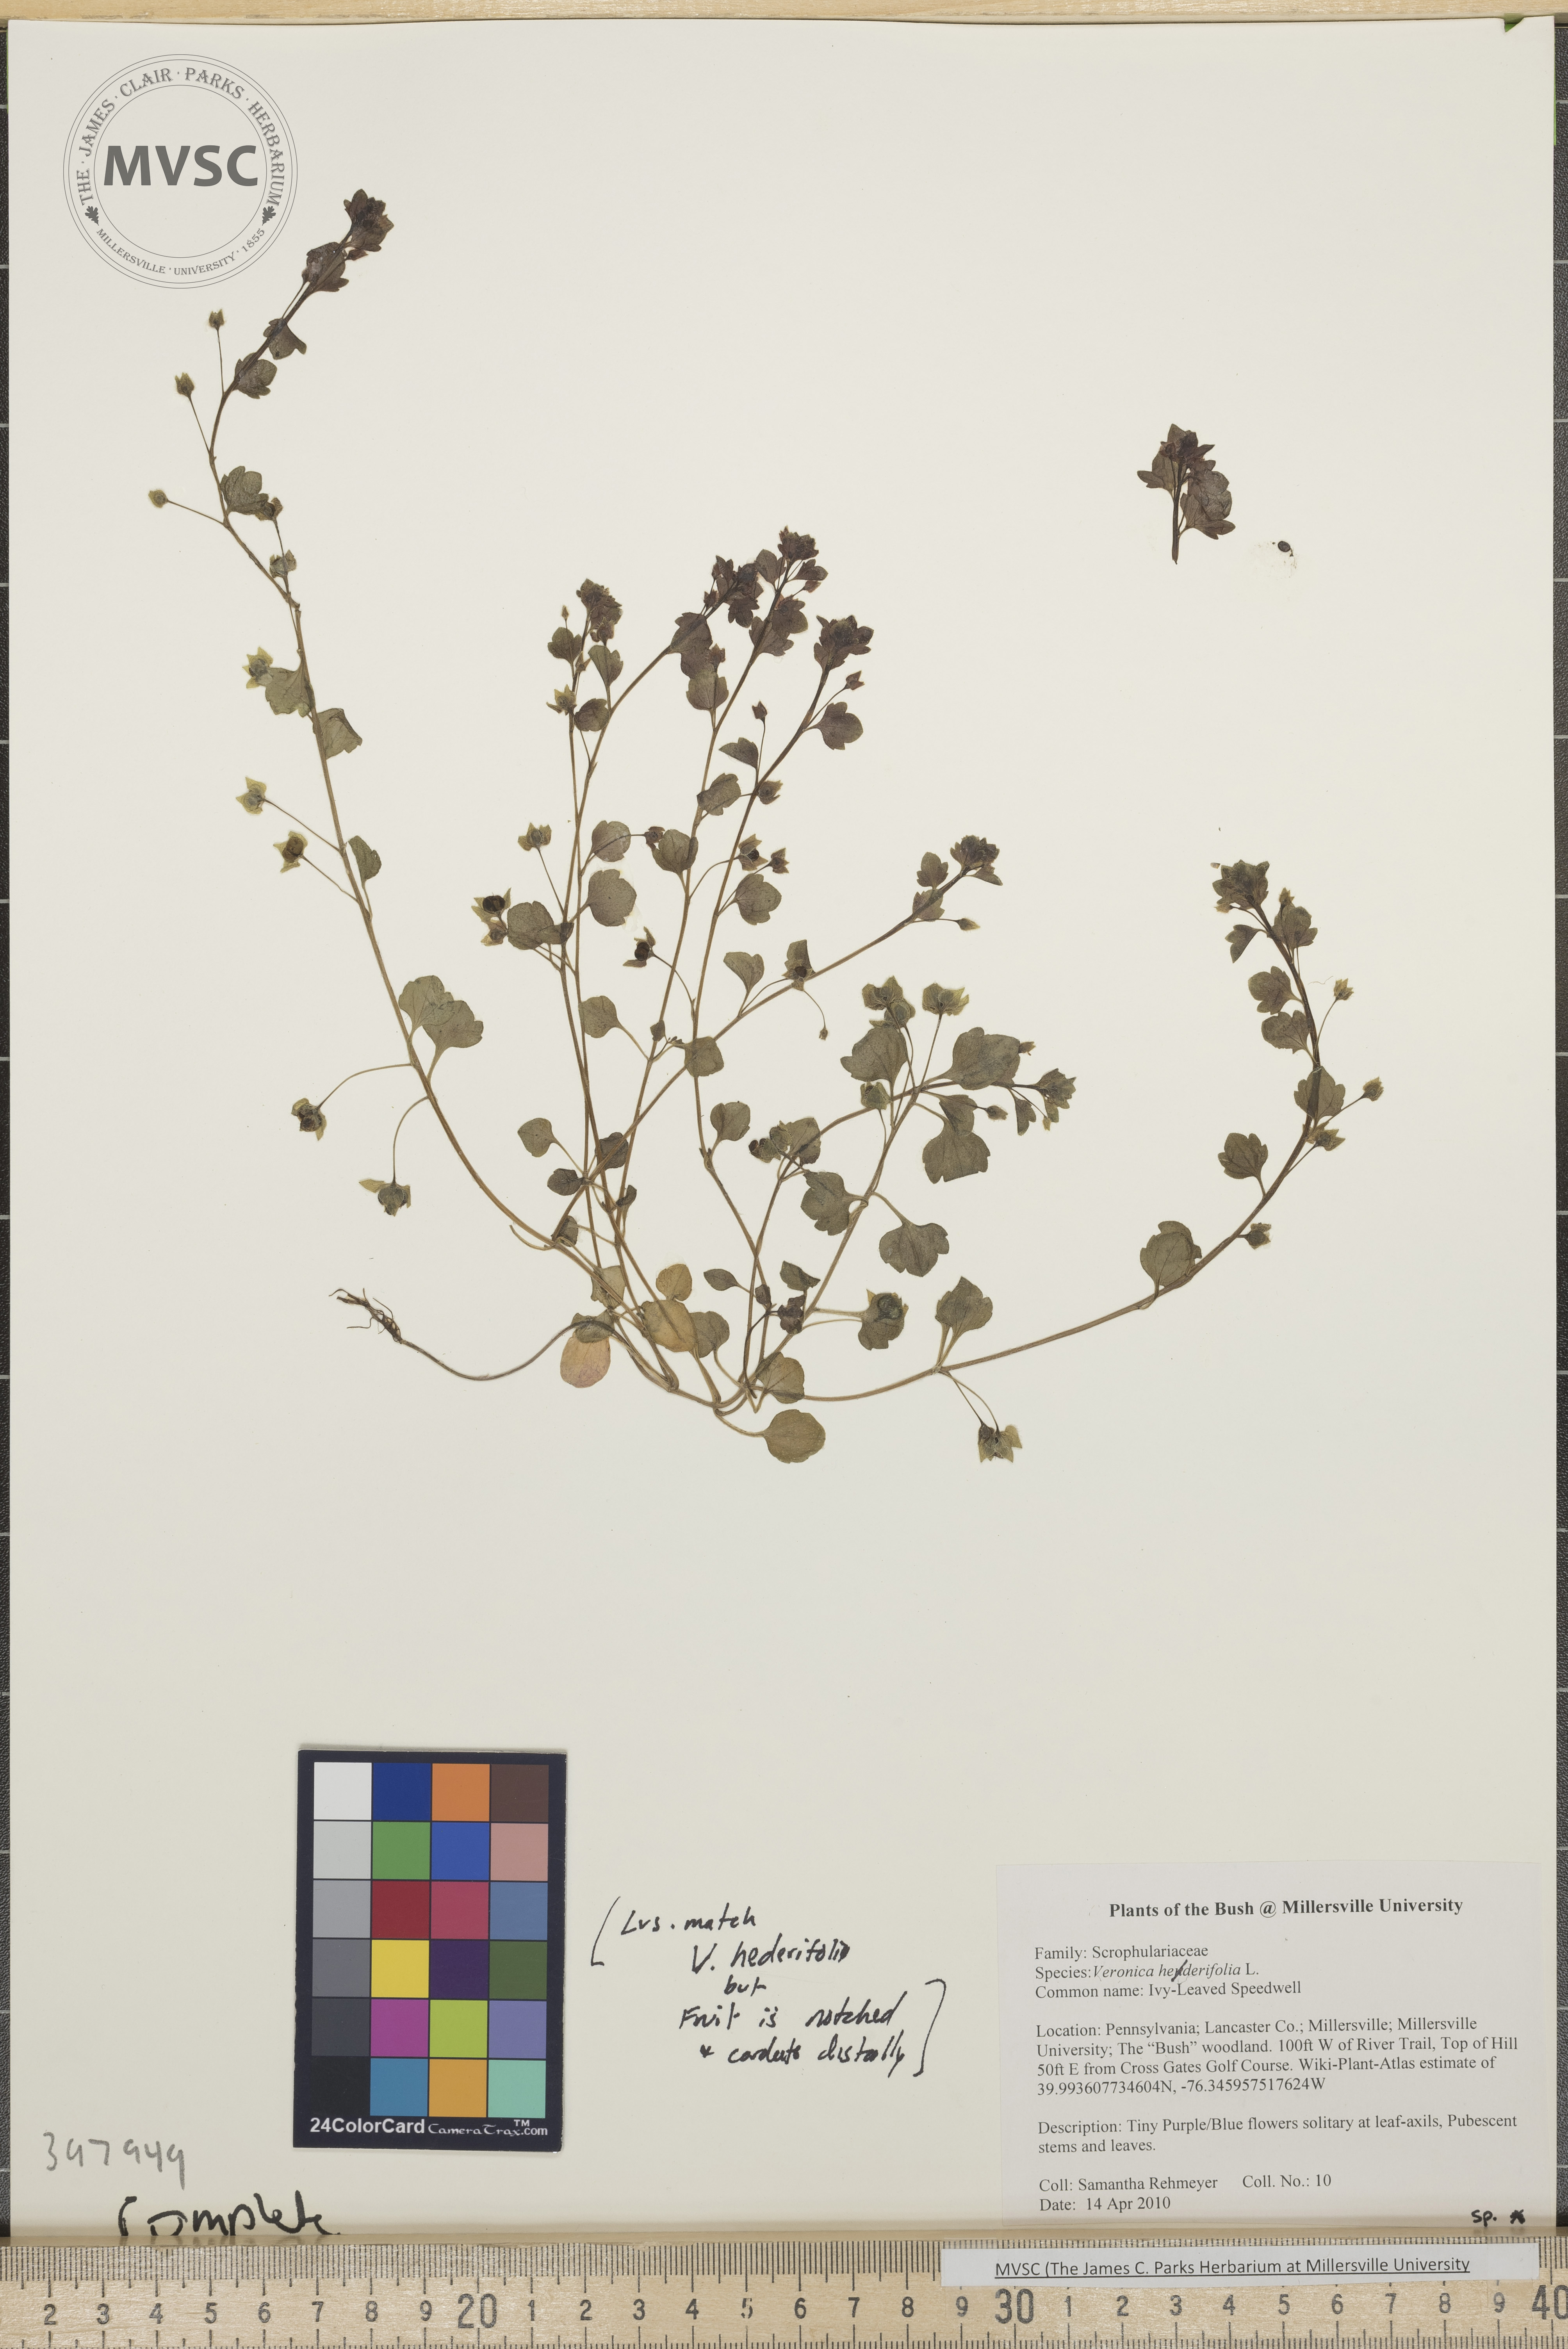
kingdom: Plantae
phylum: Tracheophyta
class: Magnoliopsida
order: Lamiales
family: Plantaginaceae
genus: Veronica
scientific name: Veronica hederifolia
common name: Ivy-leaved speedwell
